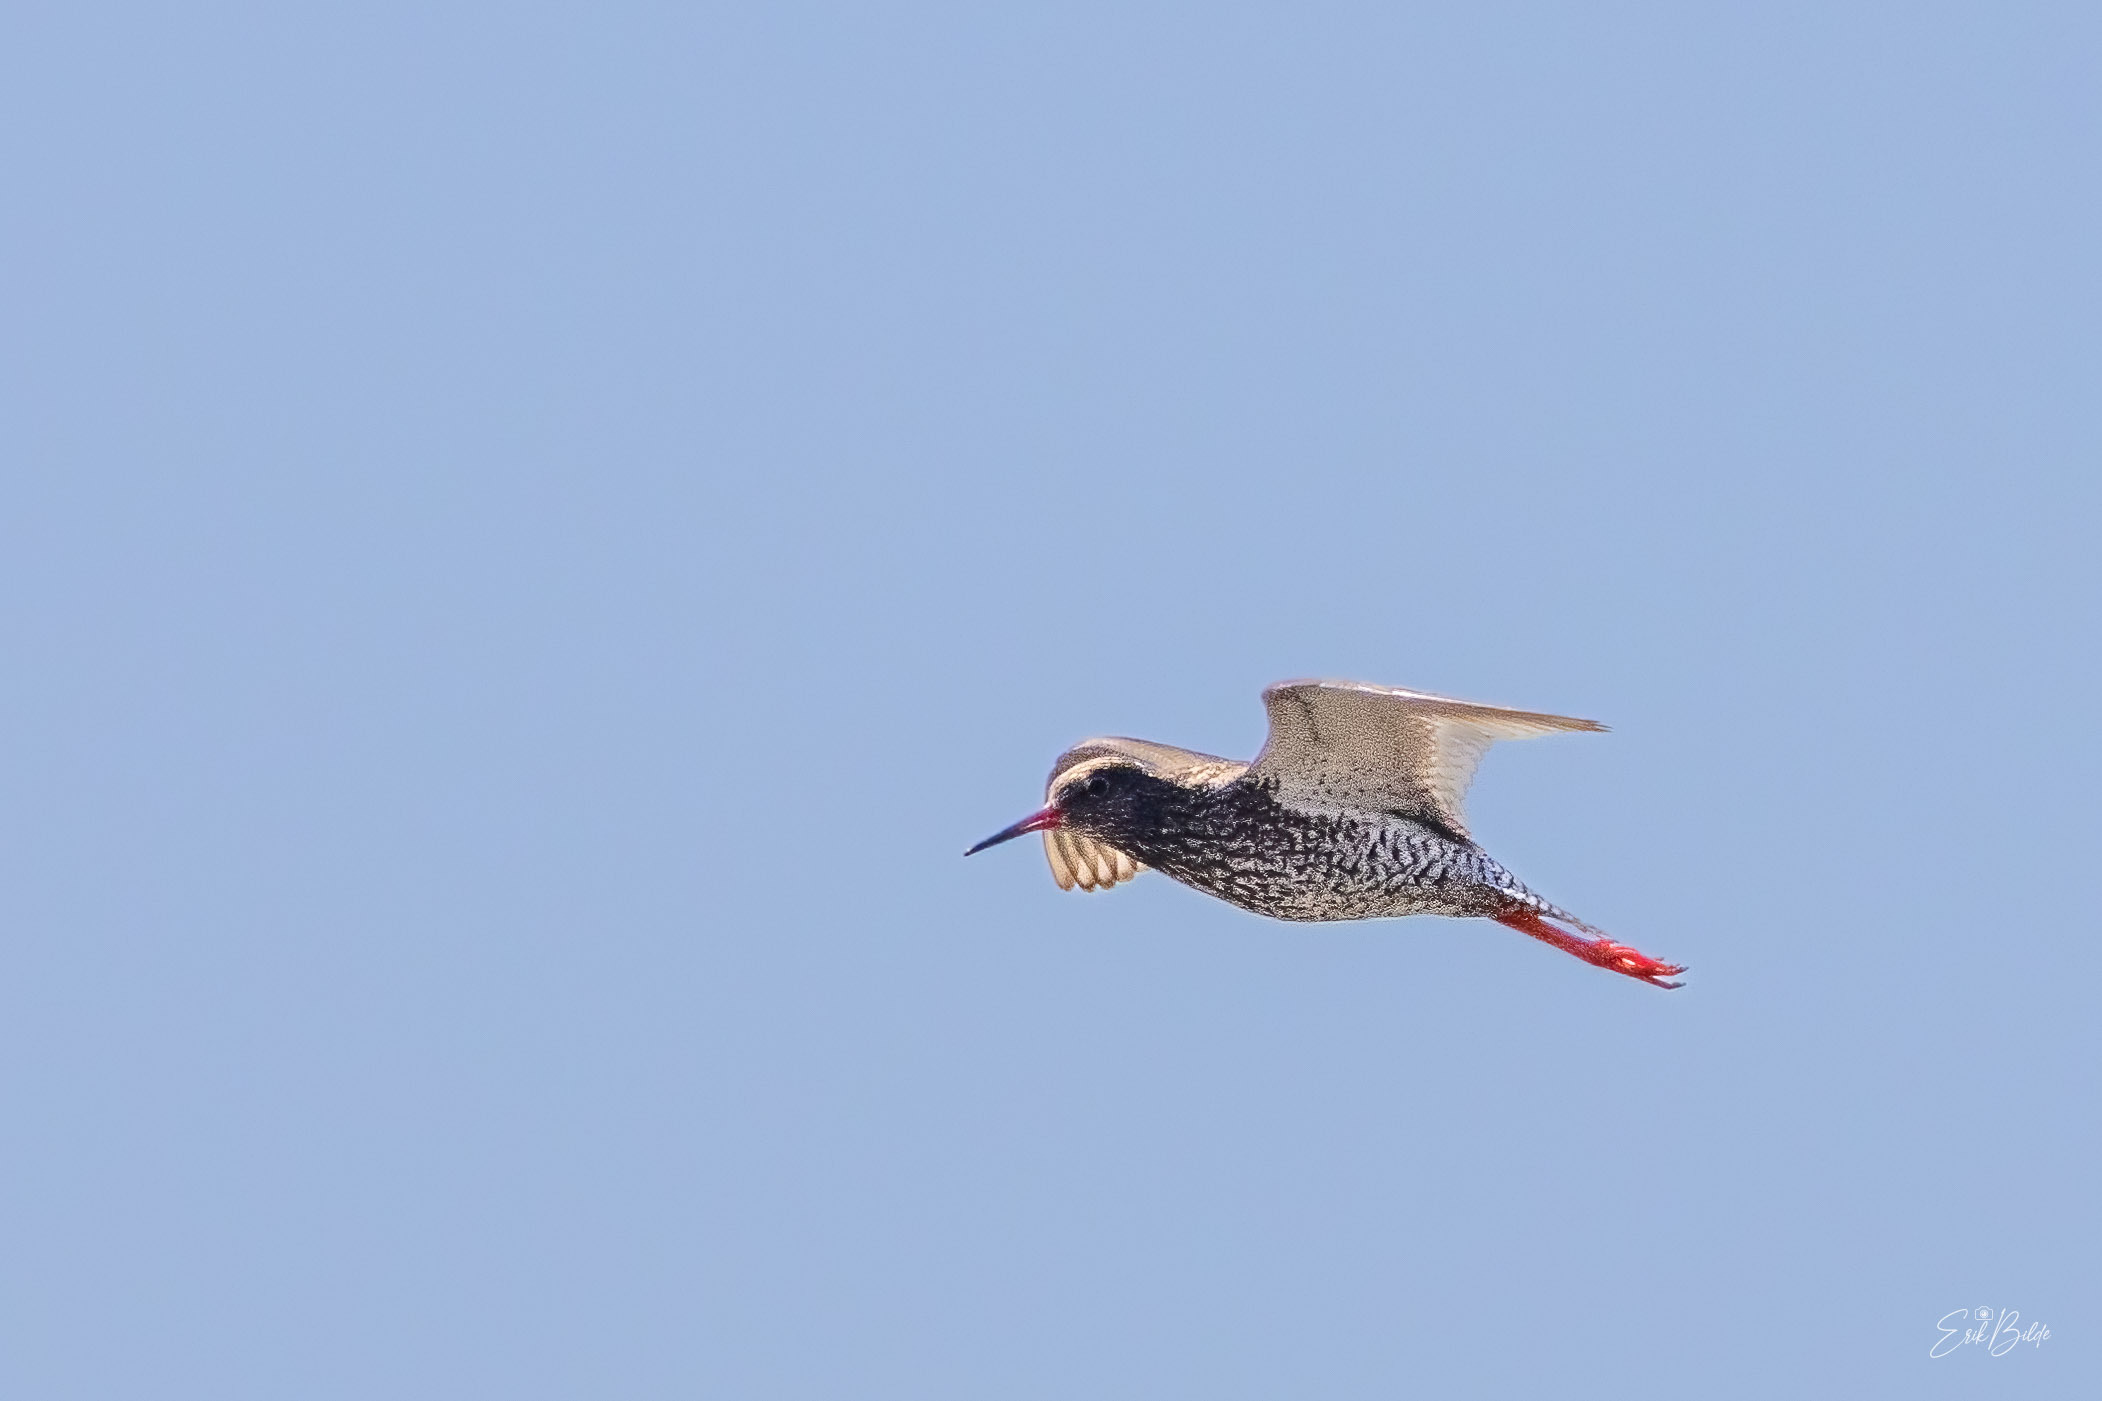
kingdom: Animalia
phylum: Chordata
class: Aves
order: Charadriiformes
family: Scolopacidae
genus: Tringa
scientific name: Tringa totanus
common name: Rødben
